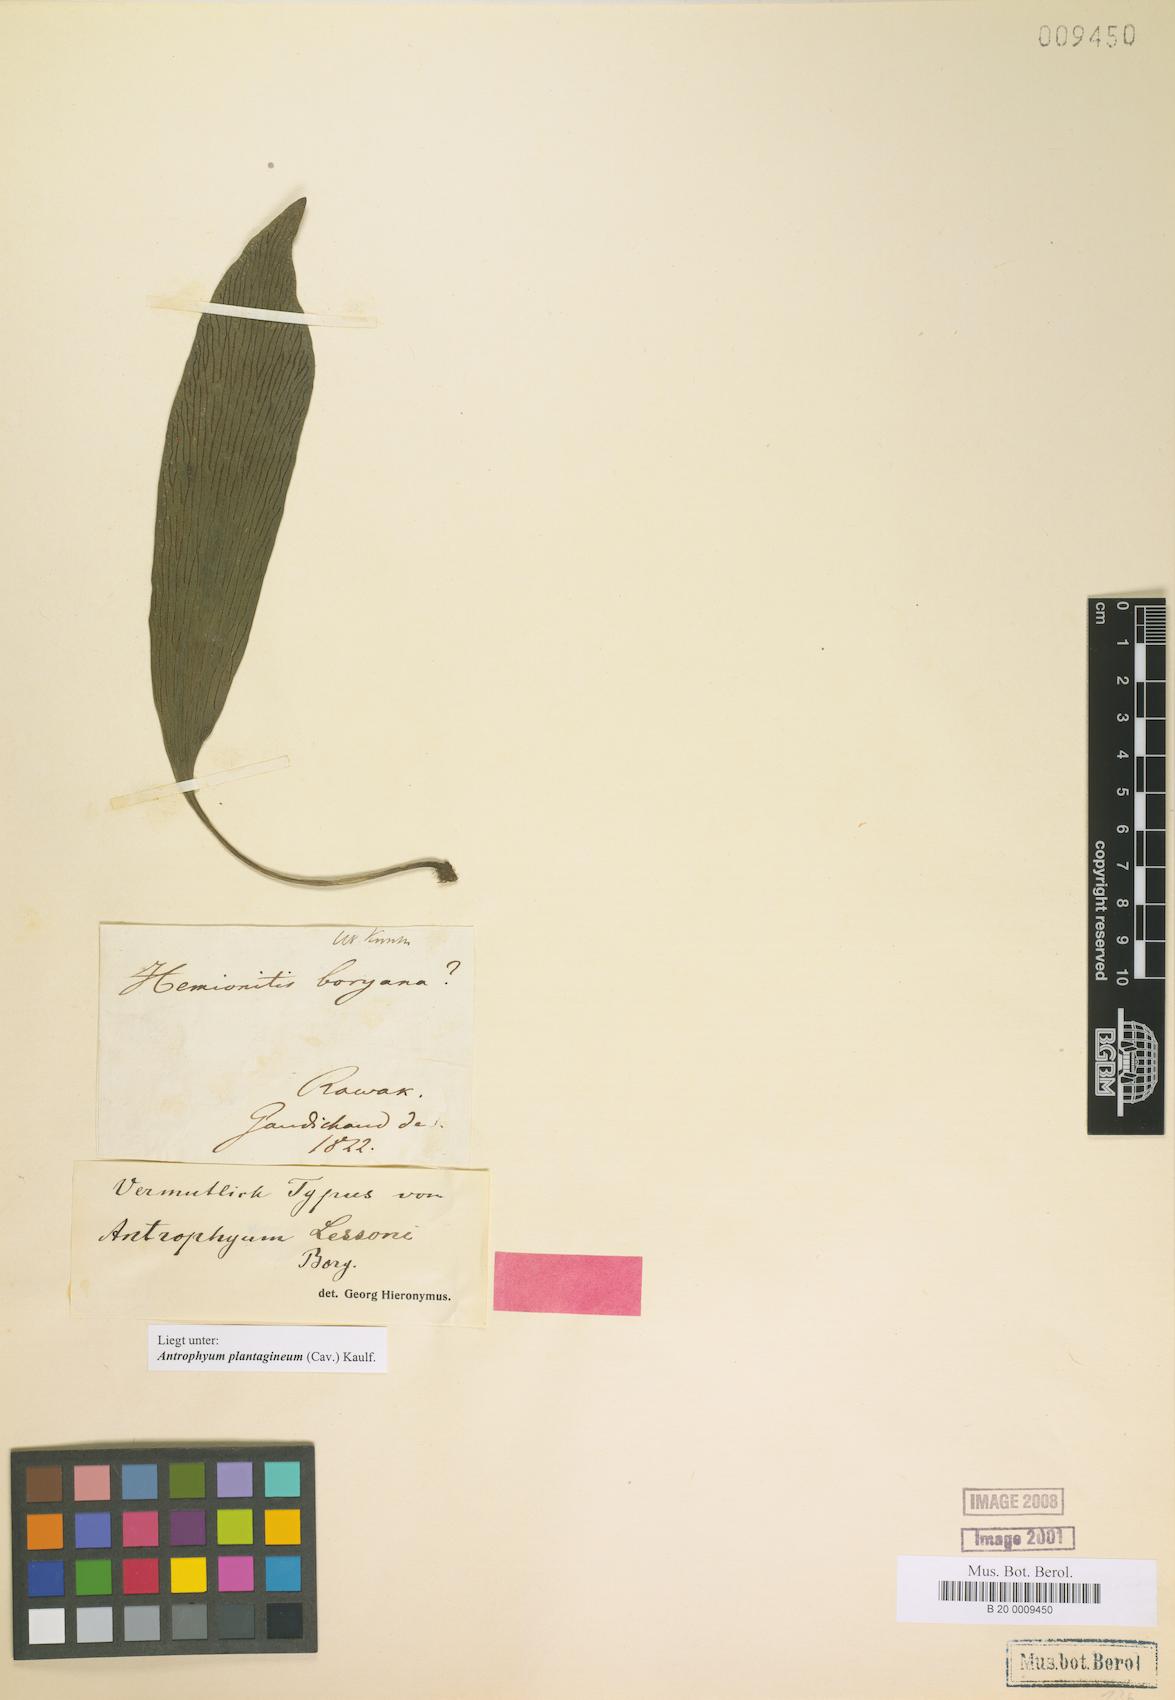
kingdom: Plantae
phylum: Tracheophyta
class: Polypodiopsida
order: Polypodiales
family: Pteridaceae
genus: Antrophyum
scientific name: Antrophyum plantagineum
